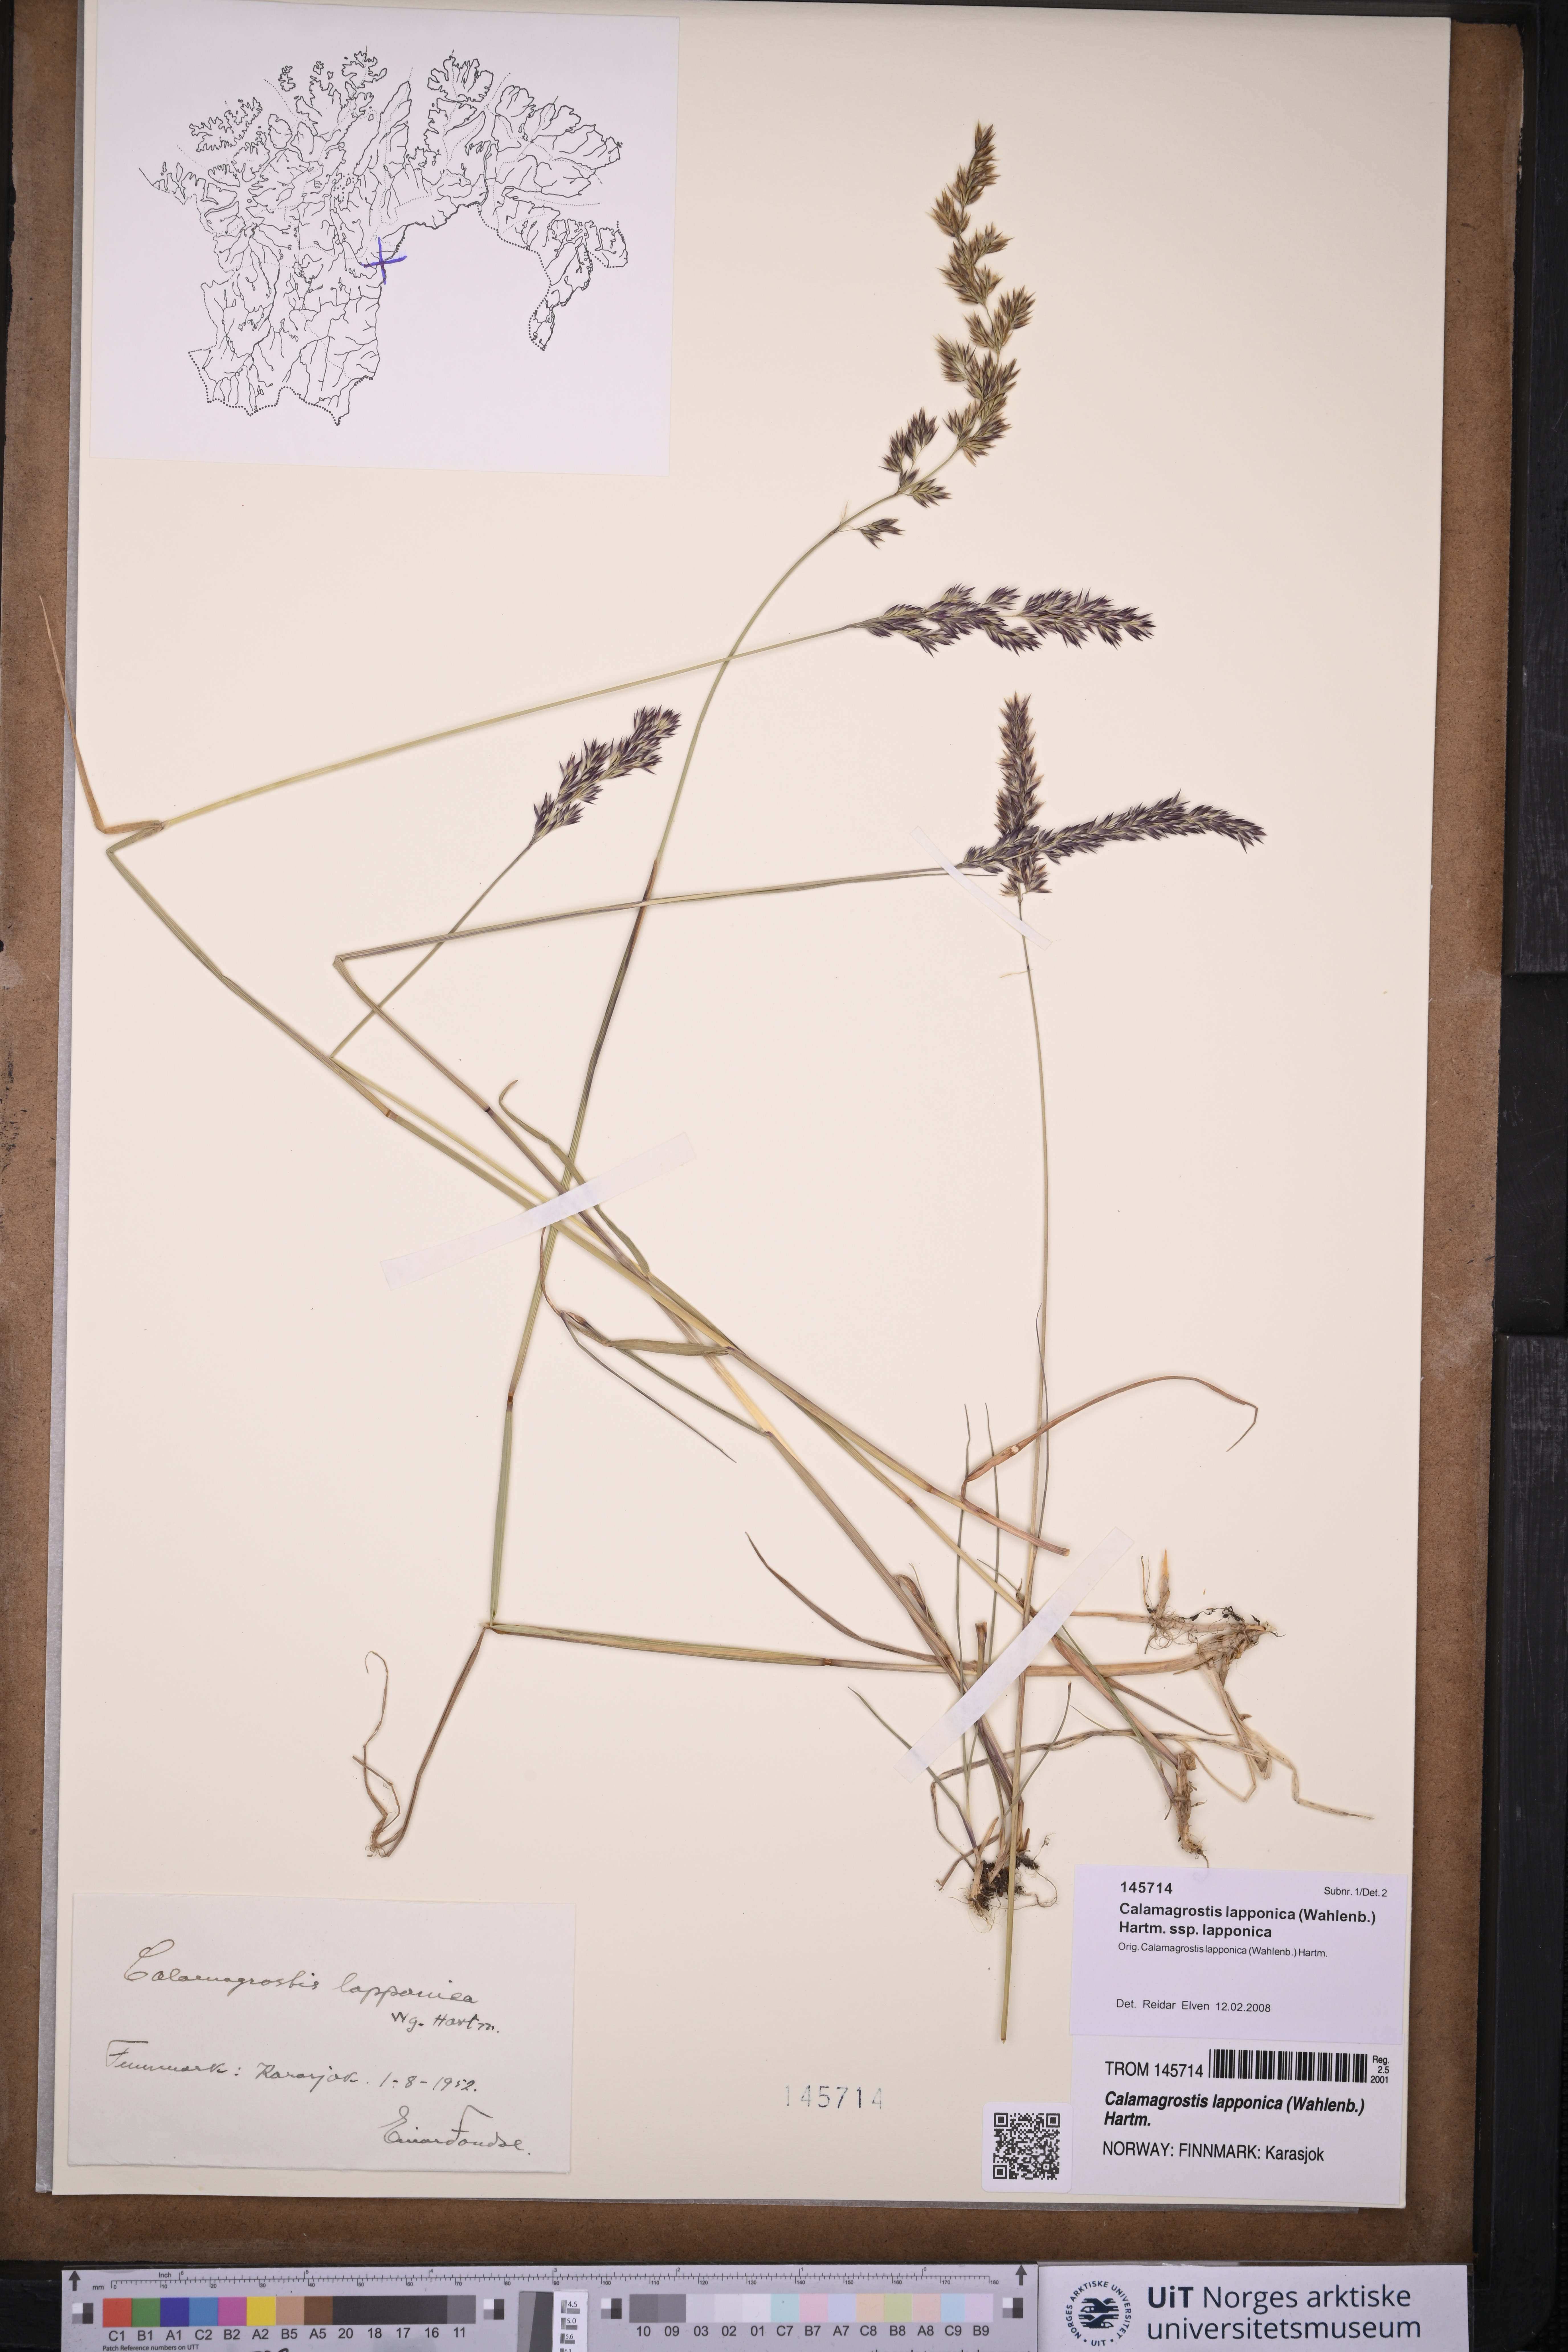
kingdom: Plantae
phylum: Tracheophyta
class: Liliopsida
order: Poales
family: Poaceae
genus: Calamagrostis
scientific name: Calamagrostis lapponica
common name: Lapland reedgrass
